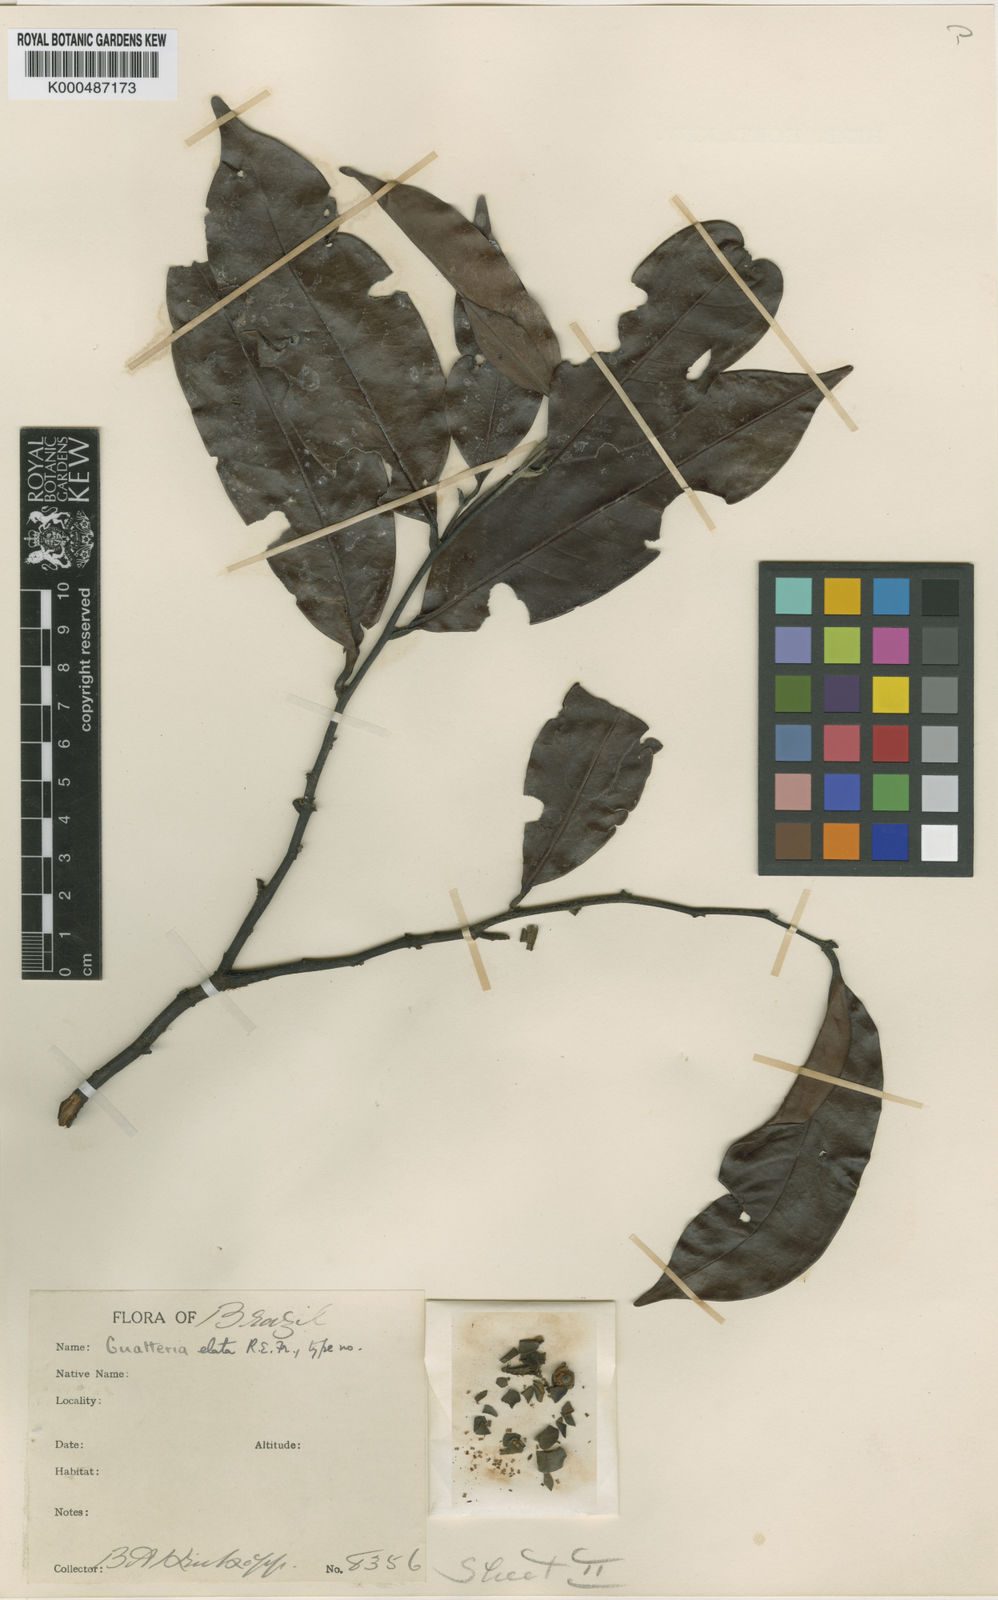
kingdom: Plantae
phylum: Tracheophyta
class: Magnoliopsida
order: Magnoliales
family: Annonaceae
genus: Guatteria
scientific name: Guatteria elata
